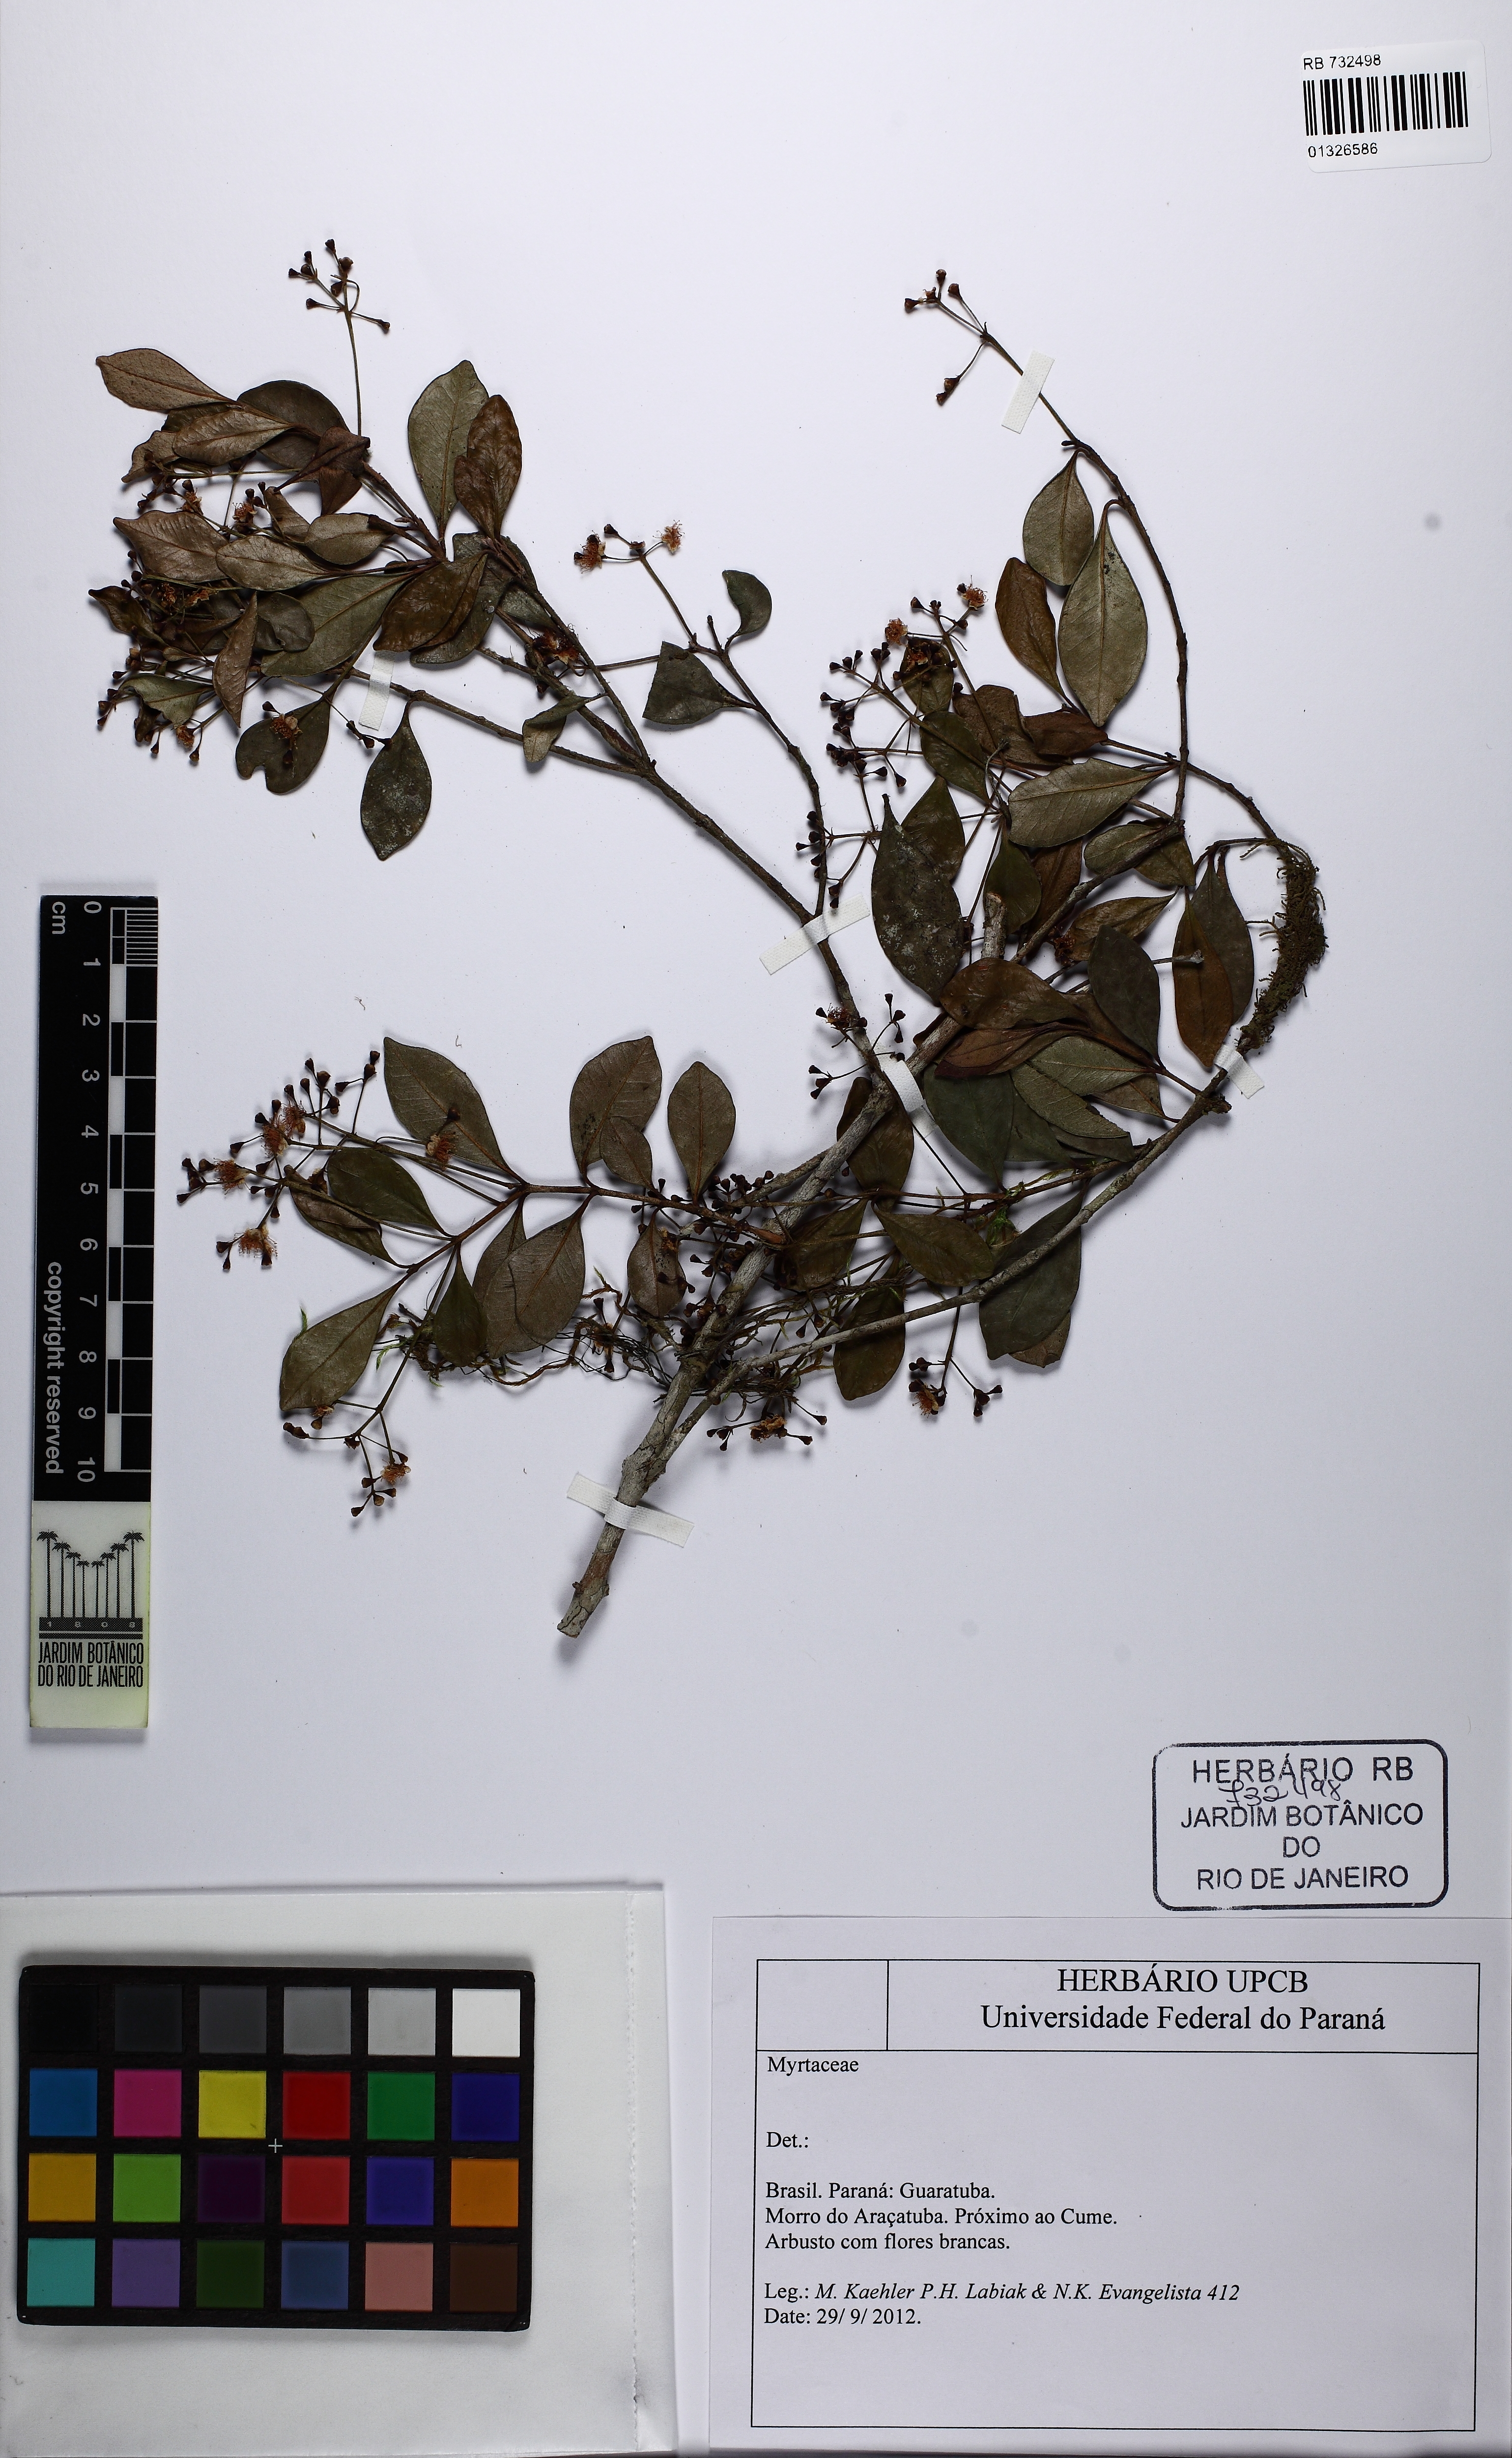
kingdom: Plantae
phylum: Tracheophyta
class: Magnoliopsida
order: Myrtales
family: Myrtaceae
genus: Myrcia
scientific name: Myrcia guianensis
